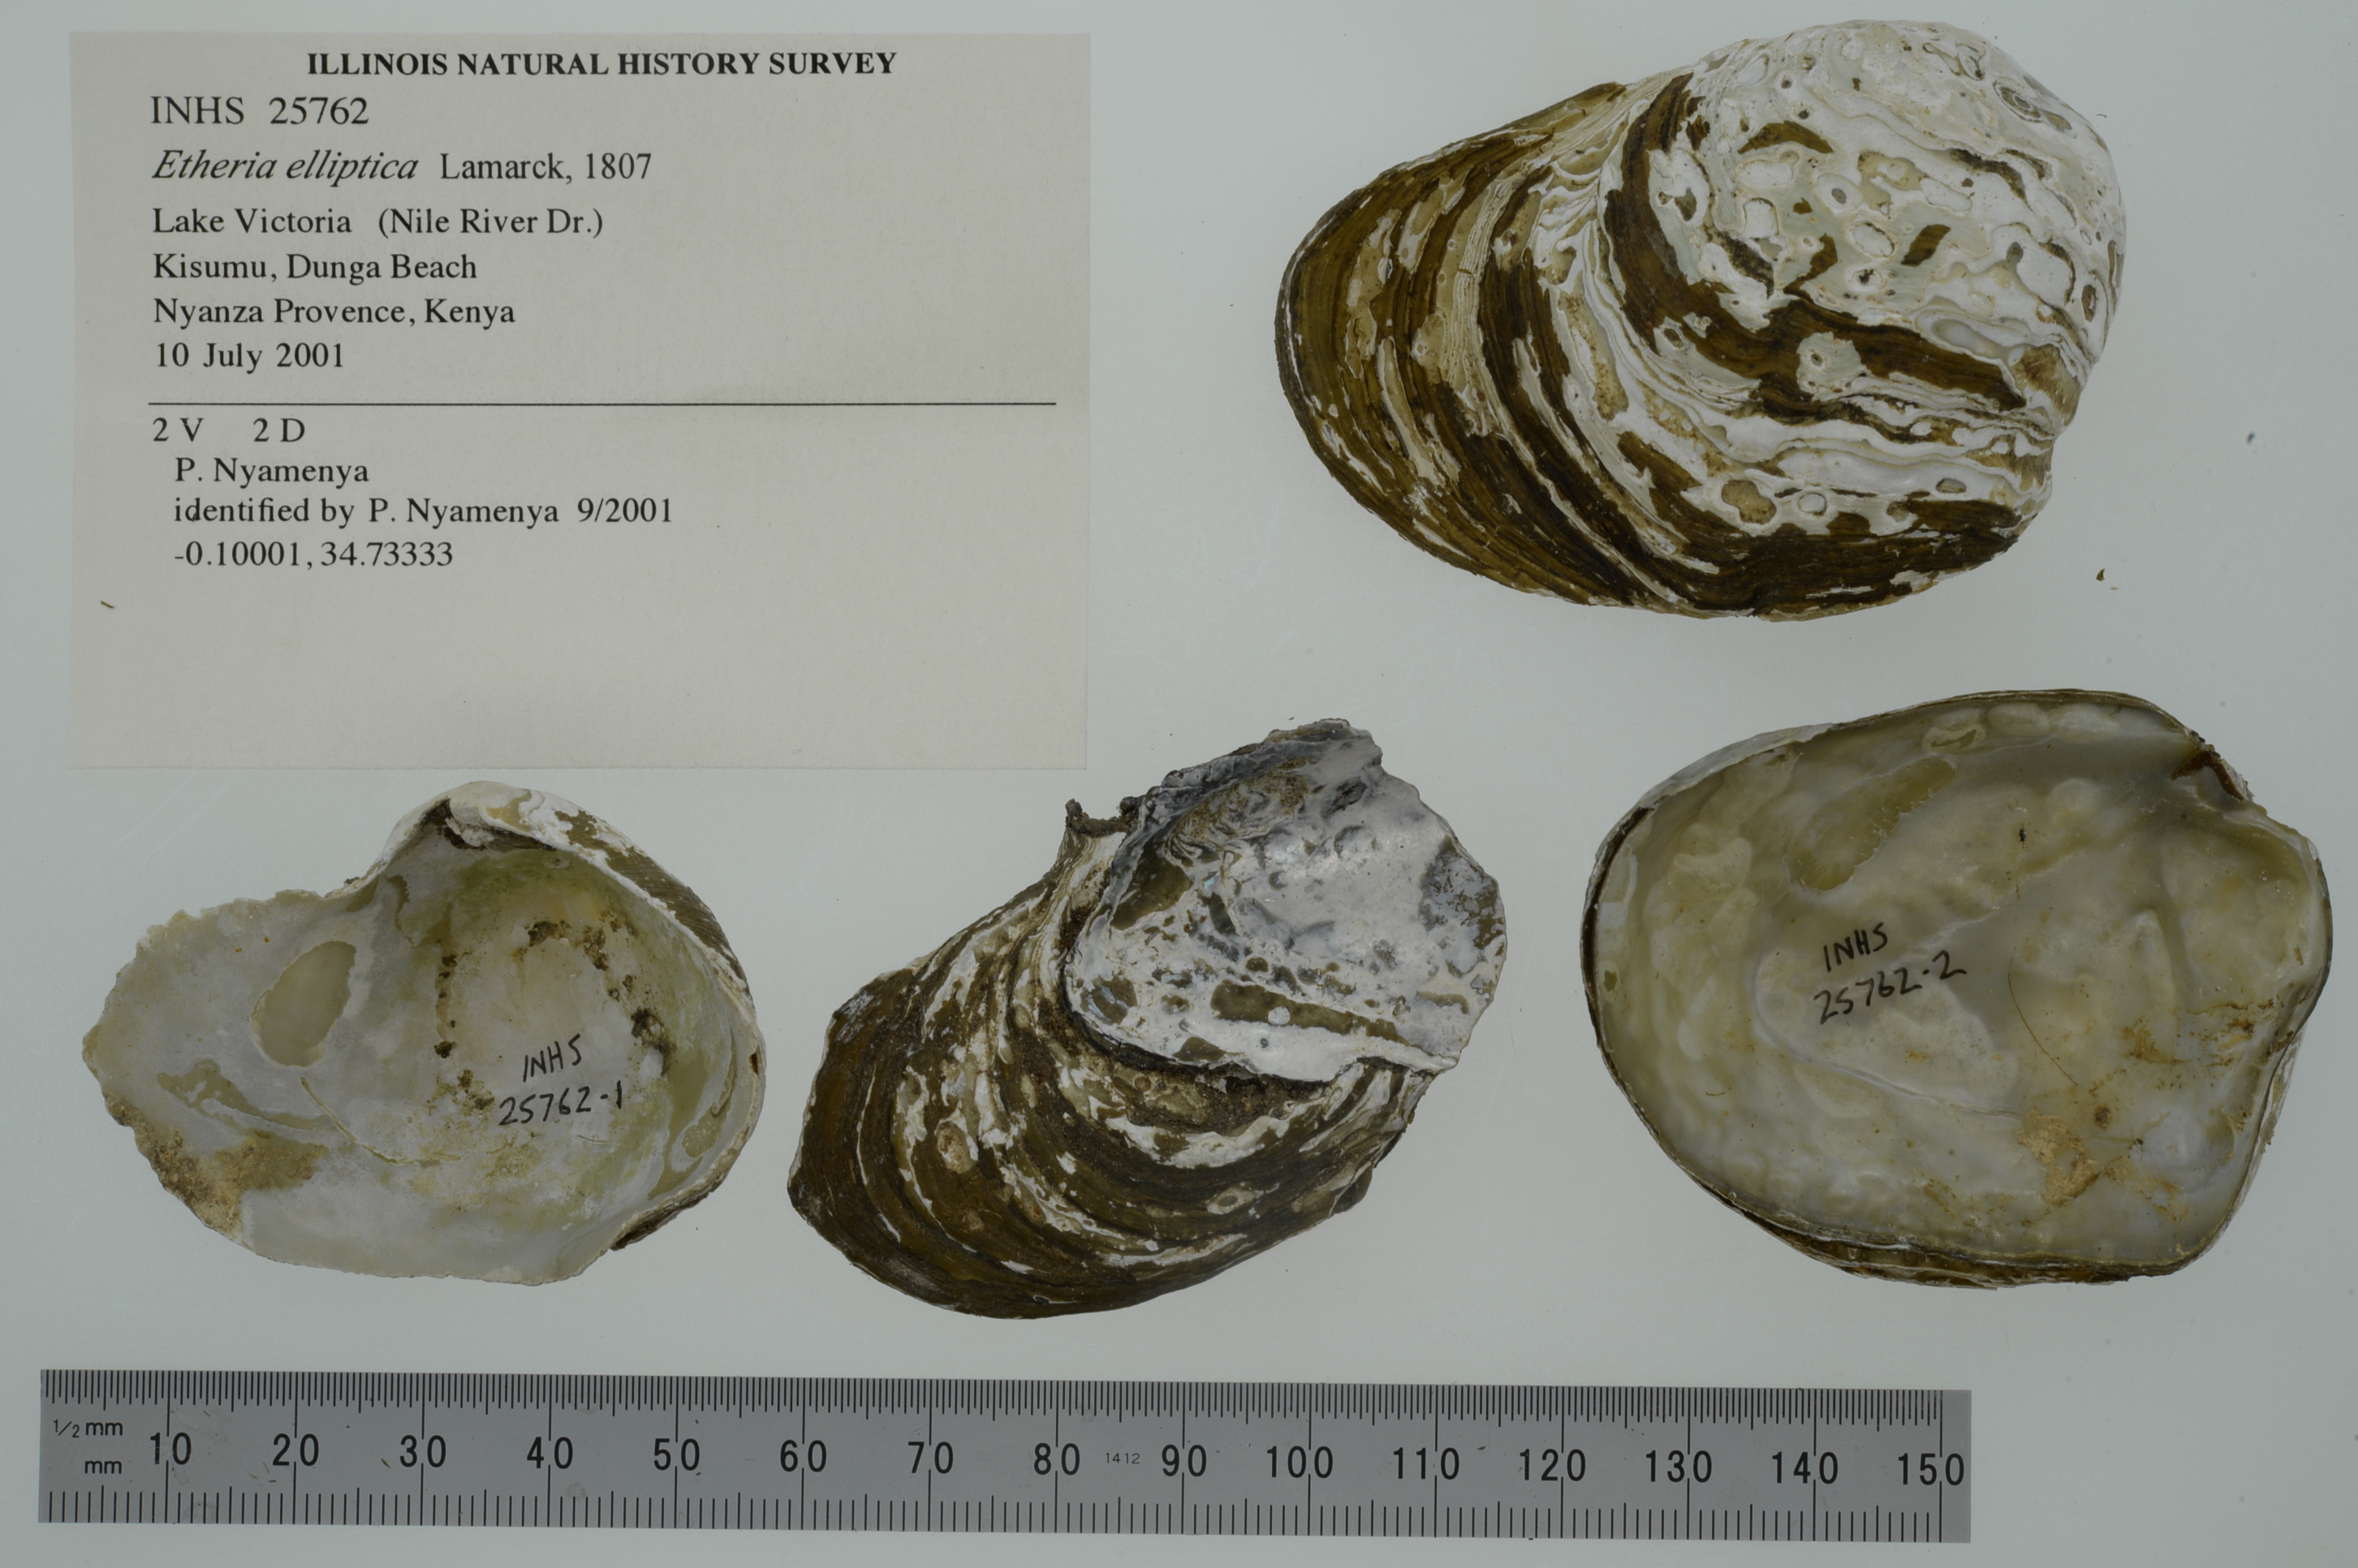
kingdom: Animalia
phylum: Mollusca
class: Bivalvia
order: Unionida
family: Etheriidae
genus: Etheria
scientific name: Etheria elliptica
